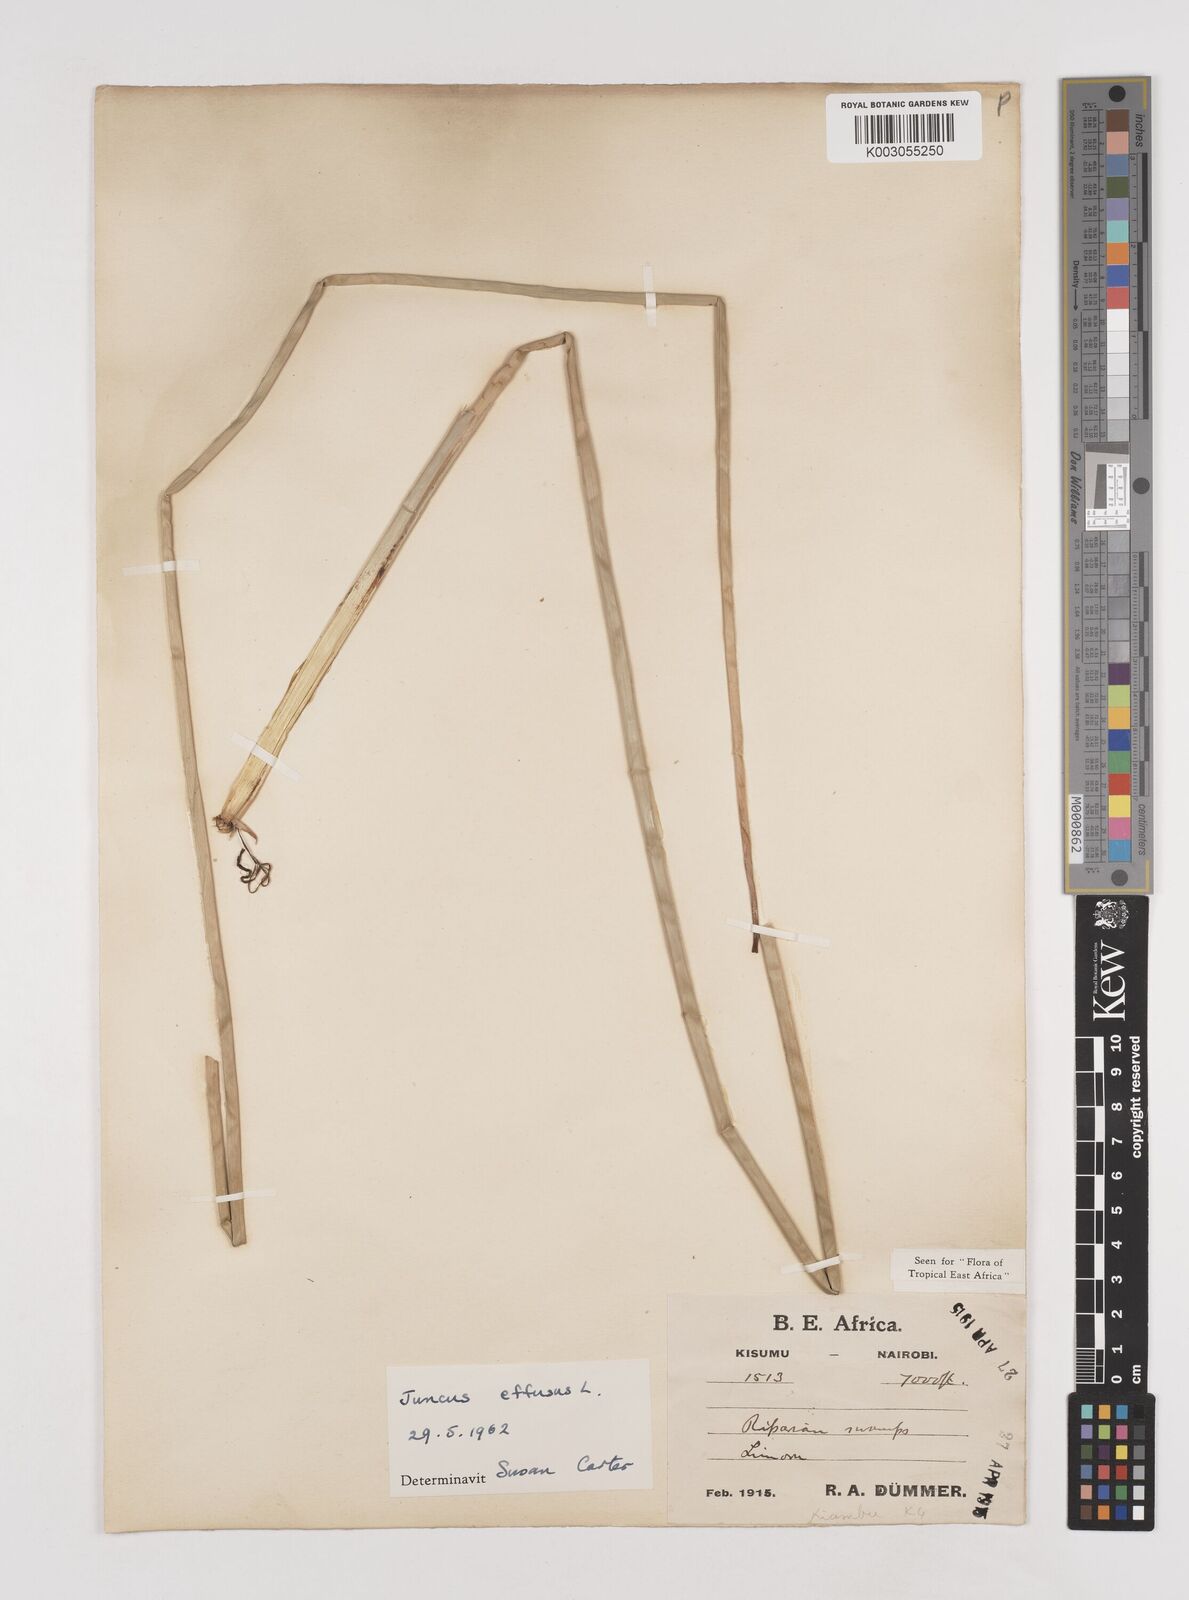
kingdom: Plantae
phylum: Tracheophyta
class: Liliopsida
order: Poales
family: Juncaceae
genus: Juncus
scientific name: Juncus effusus
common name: Soft rush
